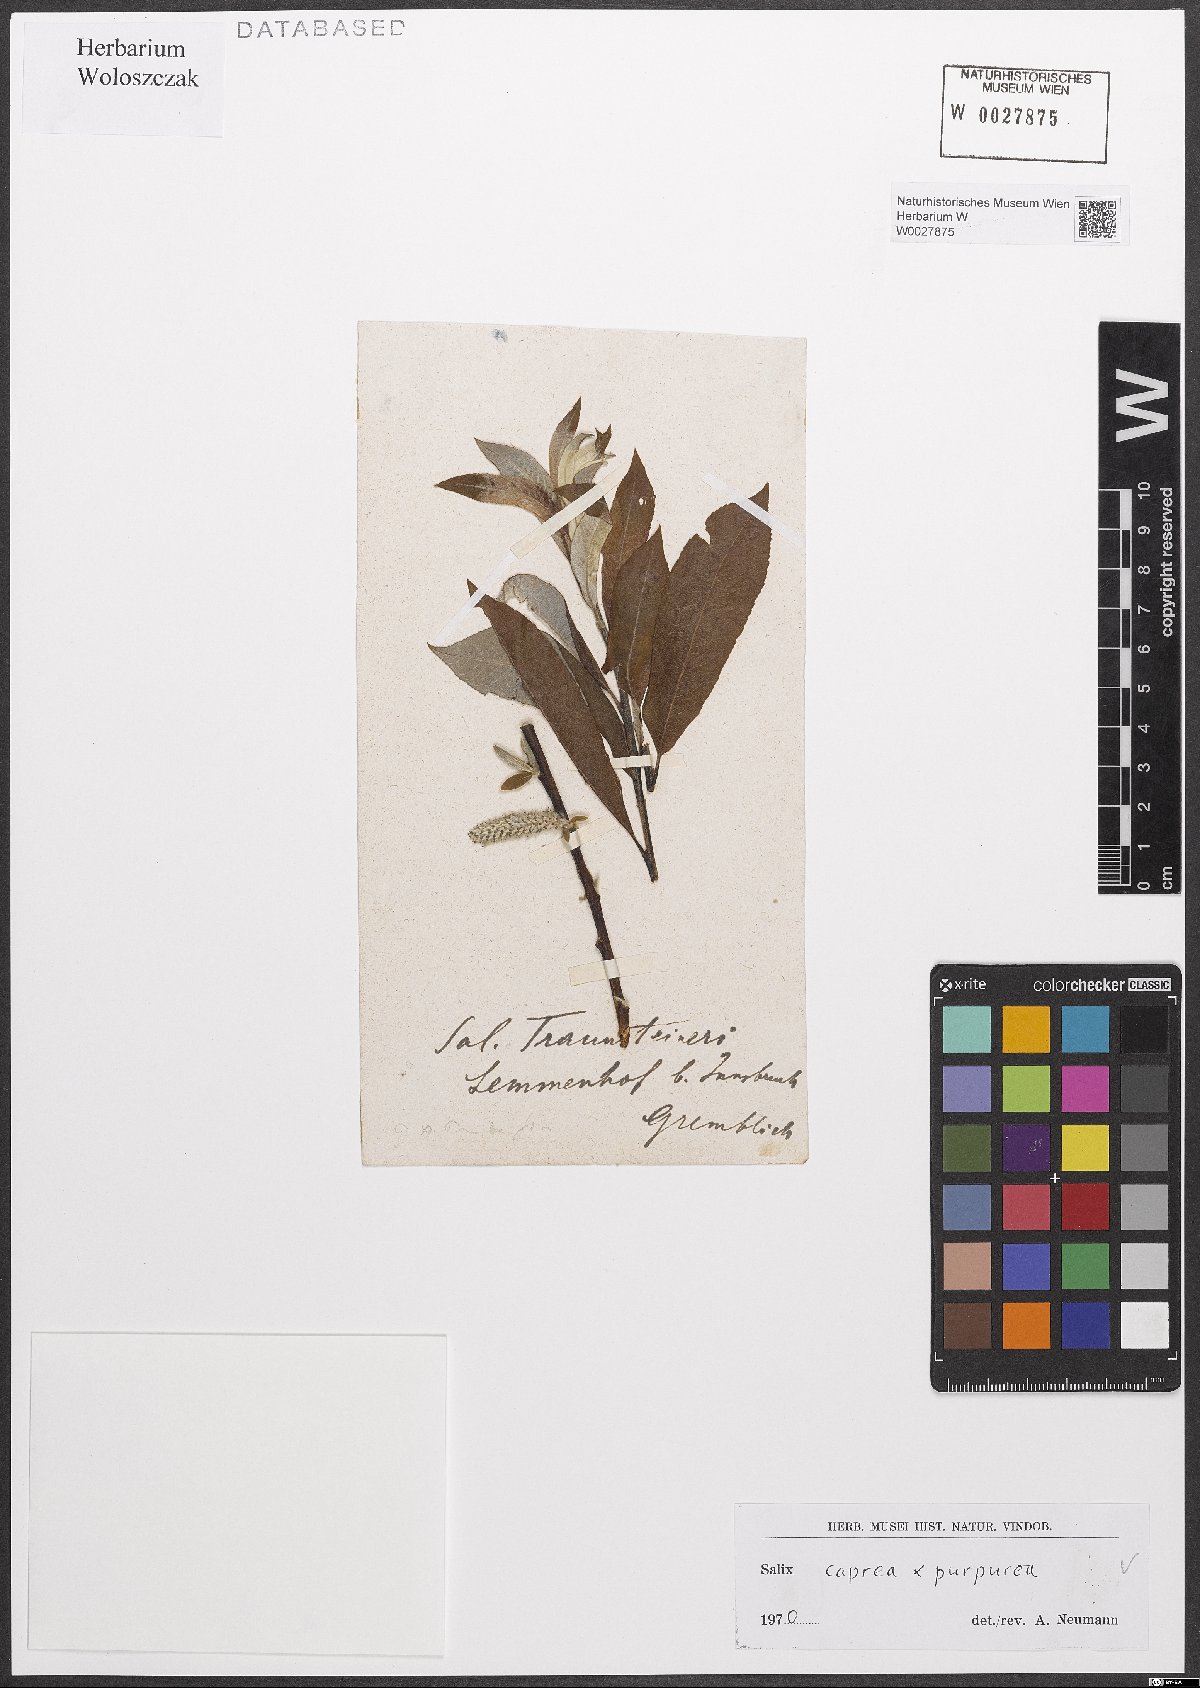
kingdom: Plantae
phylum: Tracheophyta
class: Magnoliopsida
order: Malpighiales
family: Salicaceae
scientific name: Salicaceae
